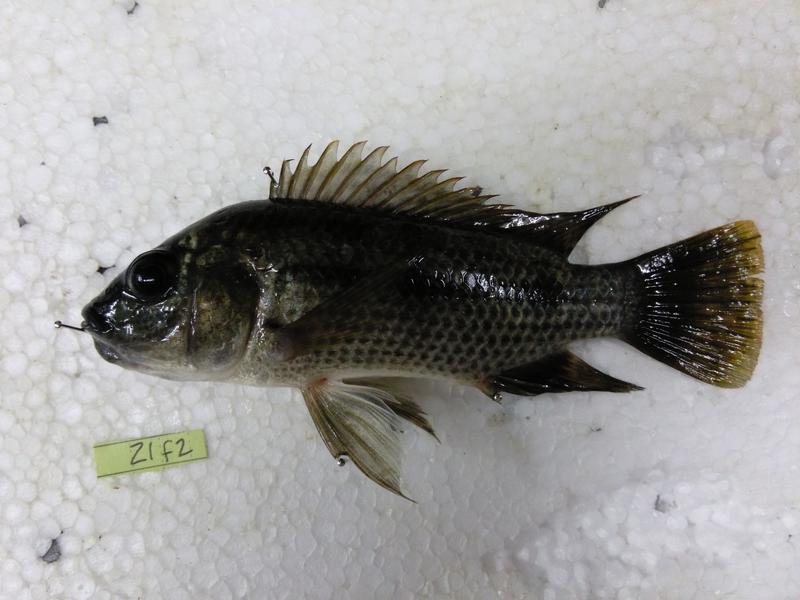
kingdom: Animalia
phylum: Chordata
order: Perciformes
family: Cichlidae
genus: Oreochromis
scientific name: Oreochromis urolepis
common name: Wami tilapia
